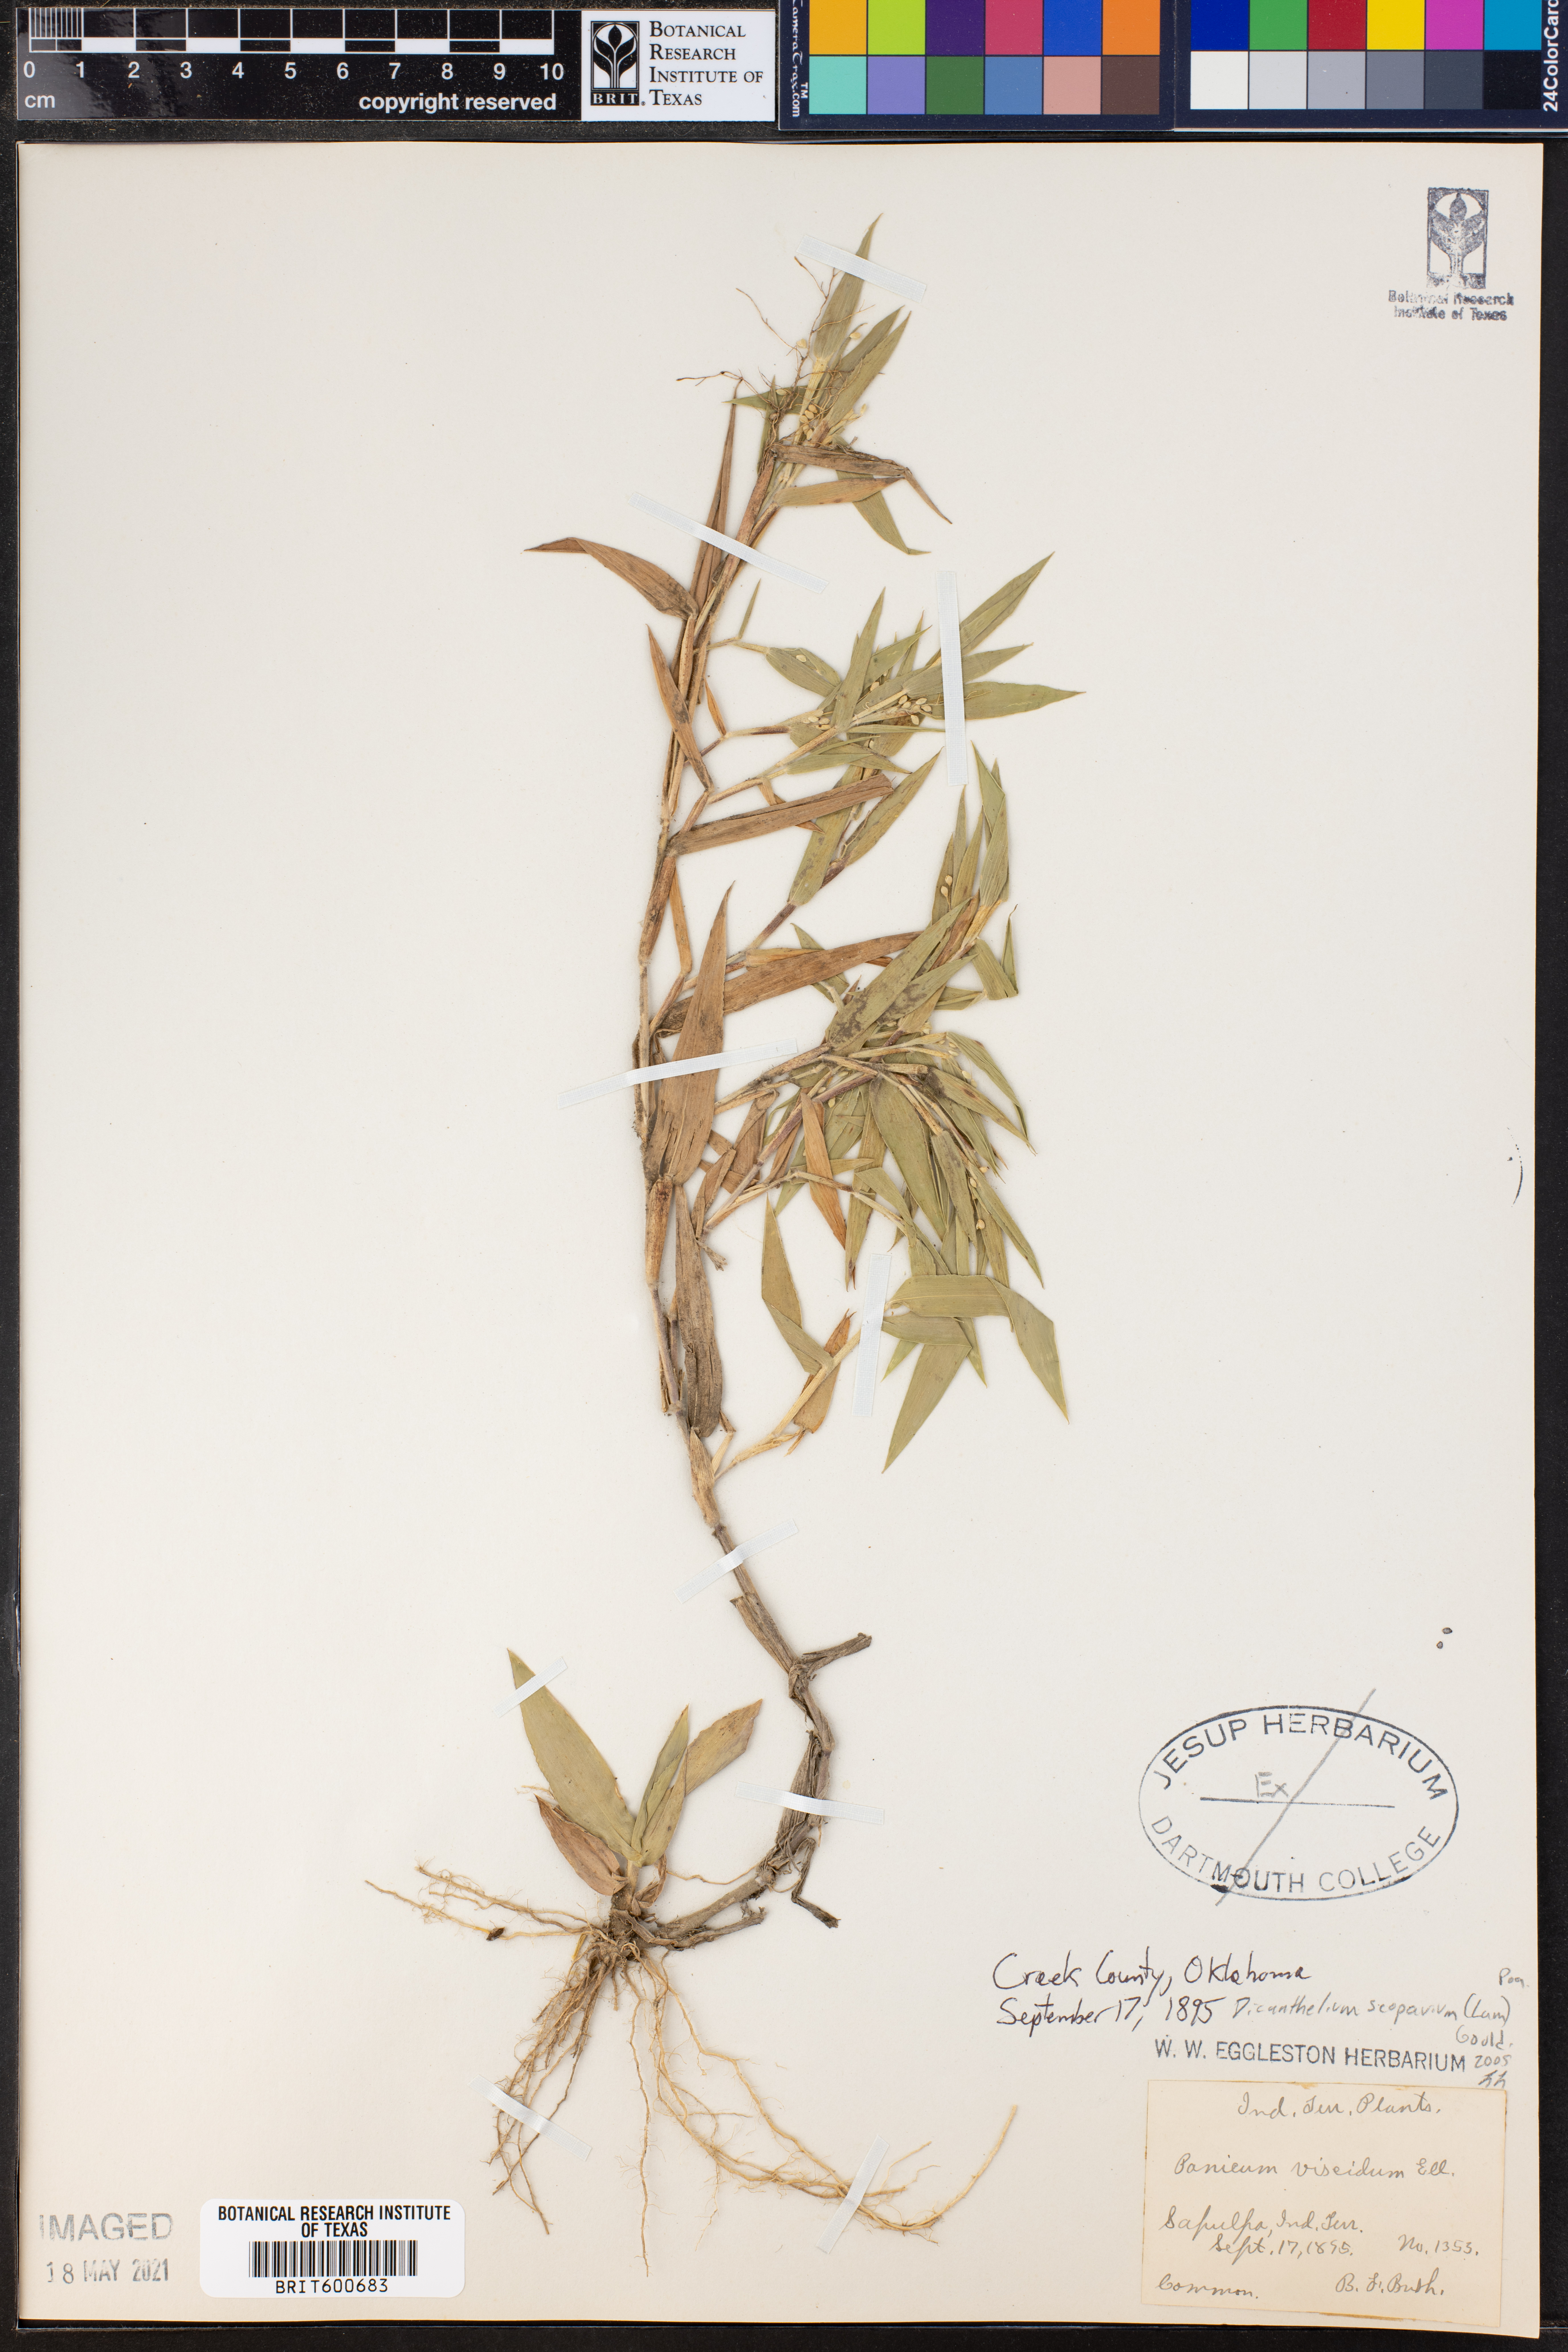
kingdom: Plantae
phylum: Tracheophyta
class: Liliopsida
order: Poales
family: Poaceae
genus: Dichanthelium
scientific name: Dichanthelium scoparium
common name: Velvety panic grass
